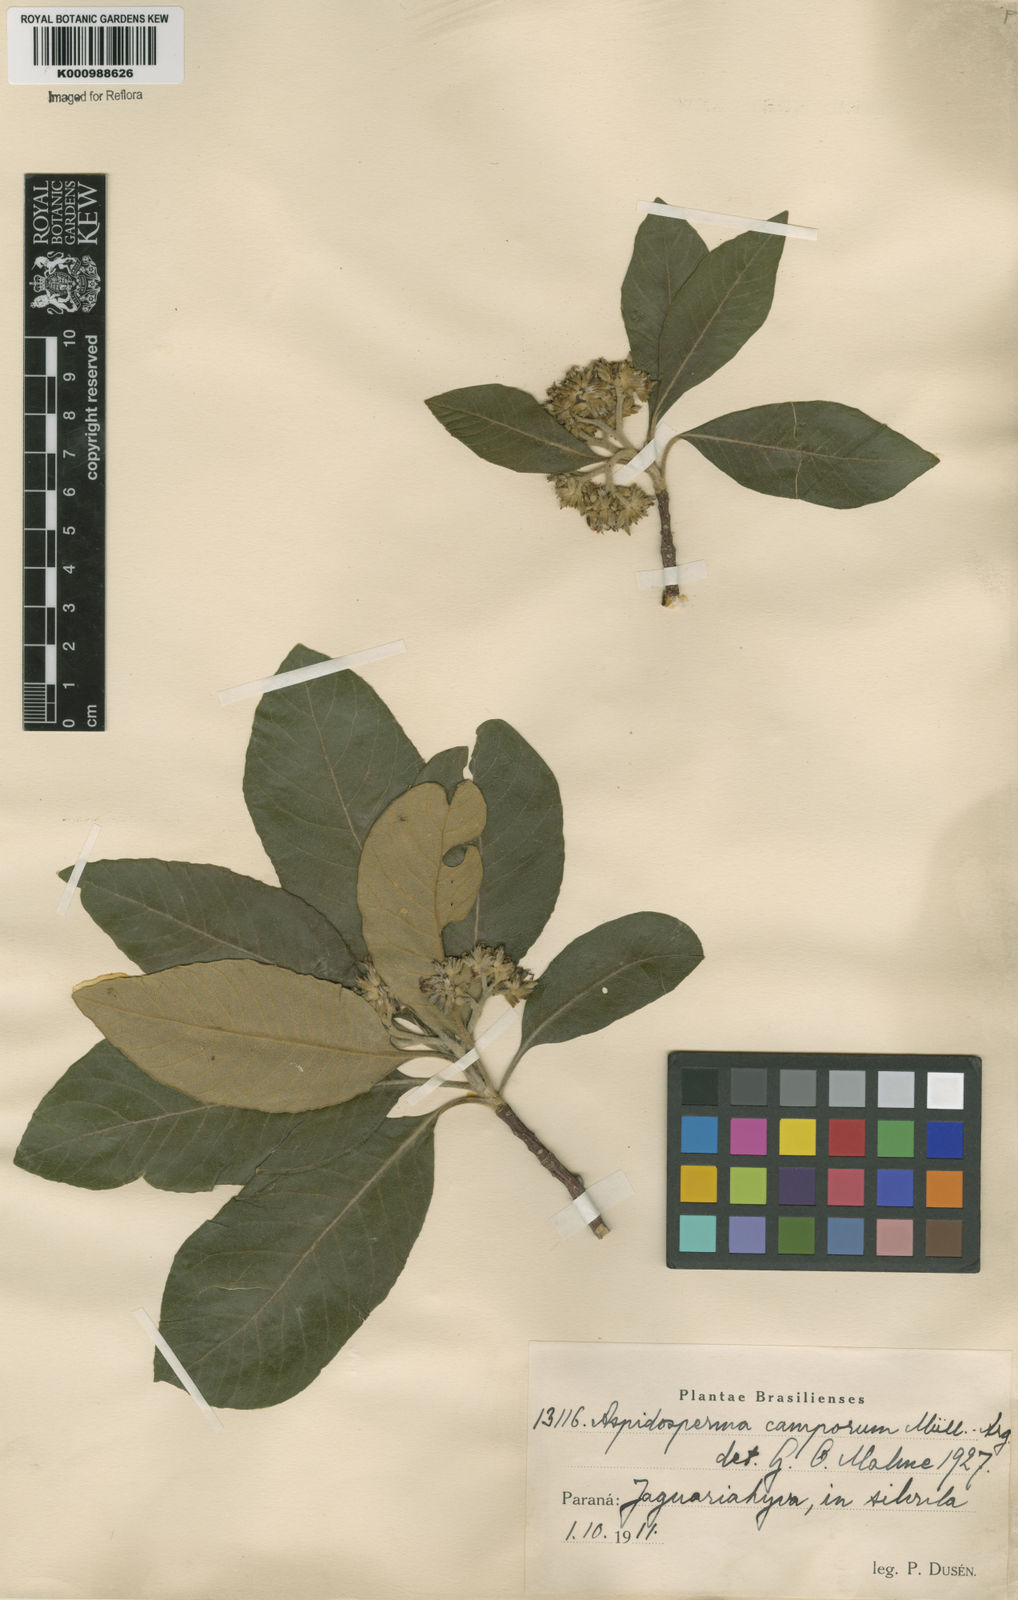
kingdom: Plantae
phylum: Tracheophyta
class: Magnoliopsida
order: Gentianales
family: Apocynaceae
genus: Aspidosperma
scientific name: Aspidosperma tomentosum
